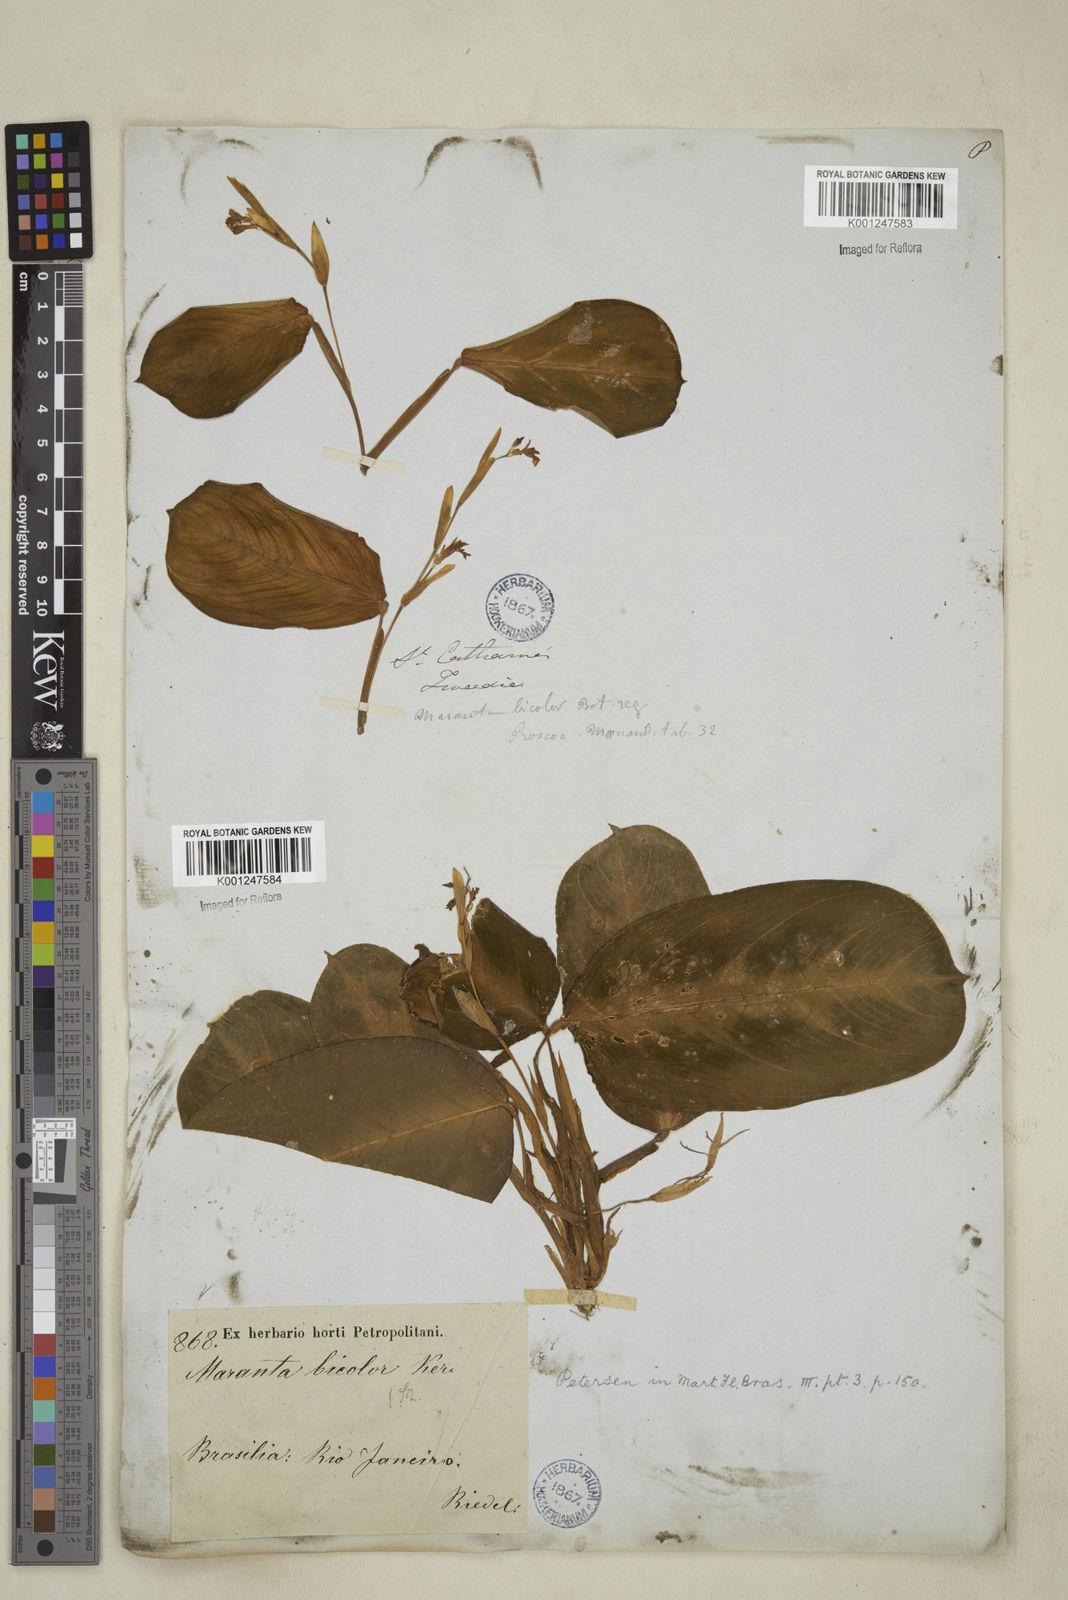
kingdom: Plantae
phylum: Tracheophyta
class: Liliopsida
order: Zingiberales
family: Marantaceae
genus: Maranta
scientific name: Maranta cristata
